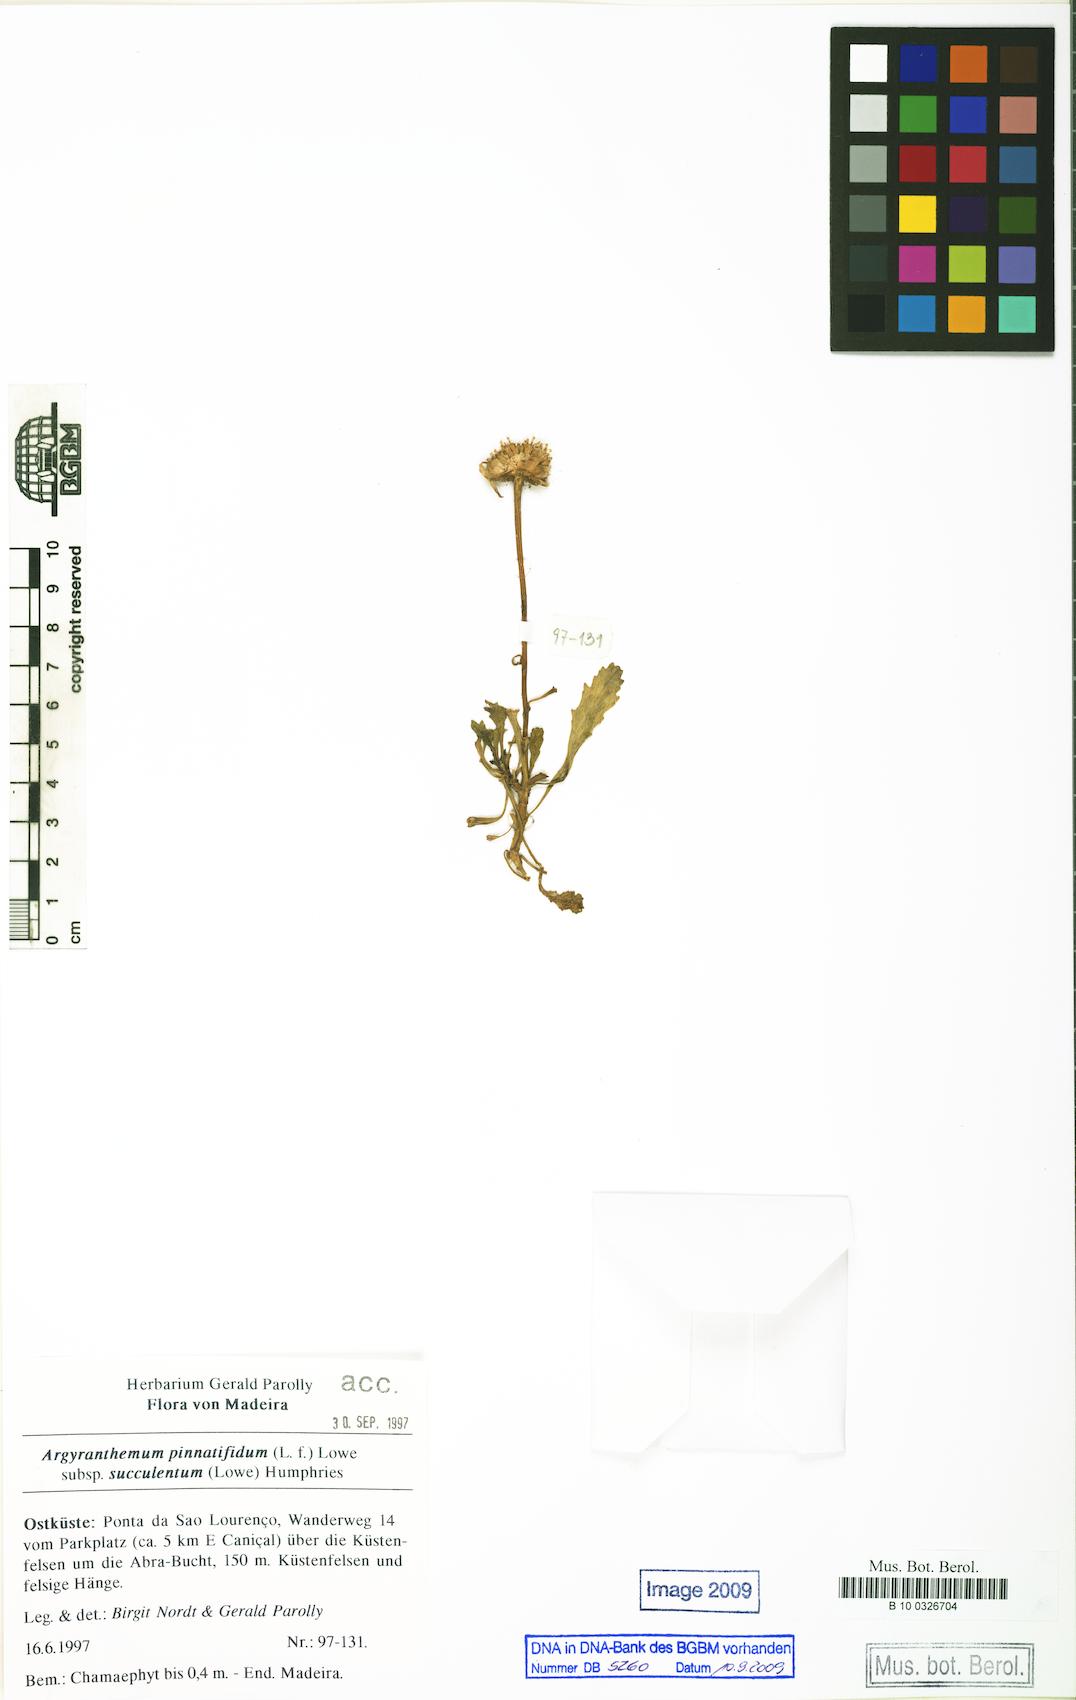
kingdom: Plantae
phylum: Tracheophyta
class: Magnoliopsida
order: Asterales
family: Asteraceae
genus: Argyranthemum
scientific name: Argyranthemum pinnatifidum
